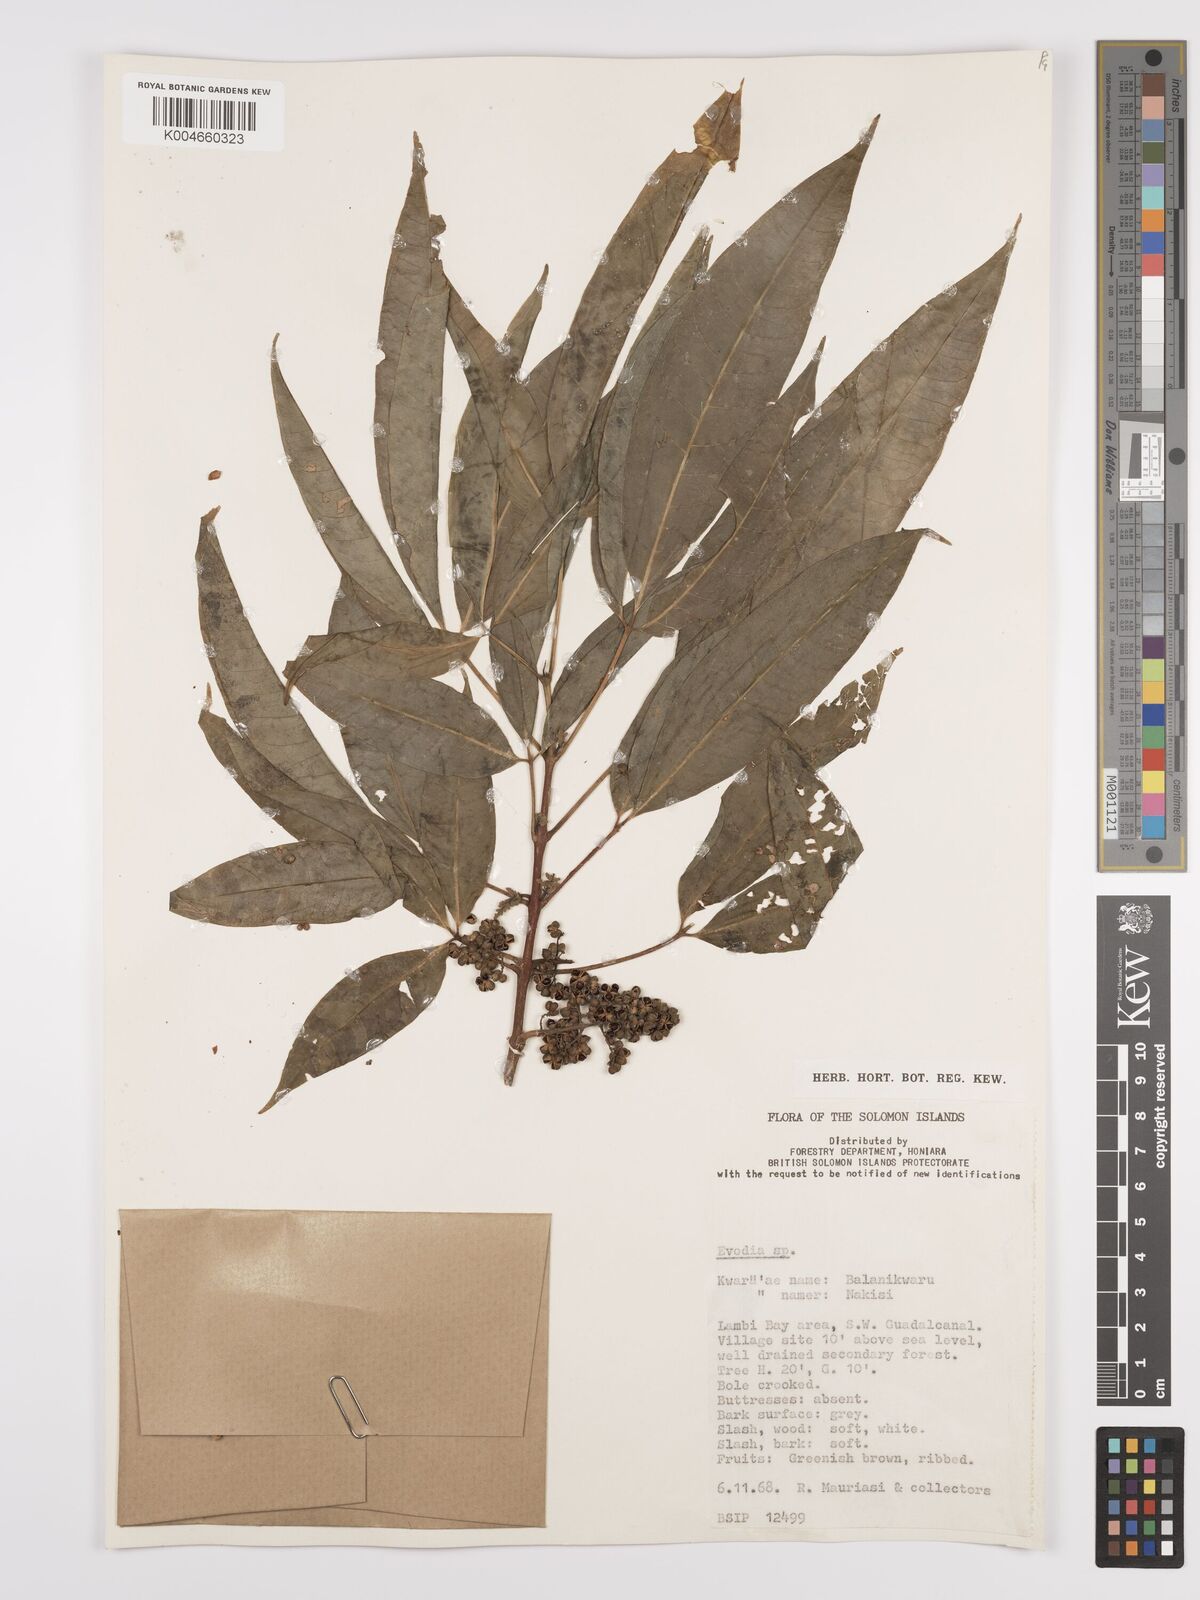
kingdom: Plantae
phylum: Tracheophyta
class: Magnoliopsida
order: Sapindales
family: Rutaceae
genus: Euodia
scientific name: Euodia
